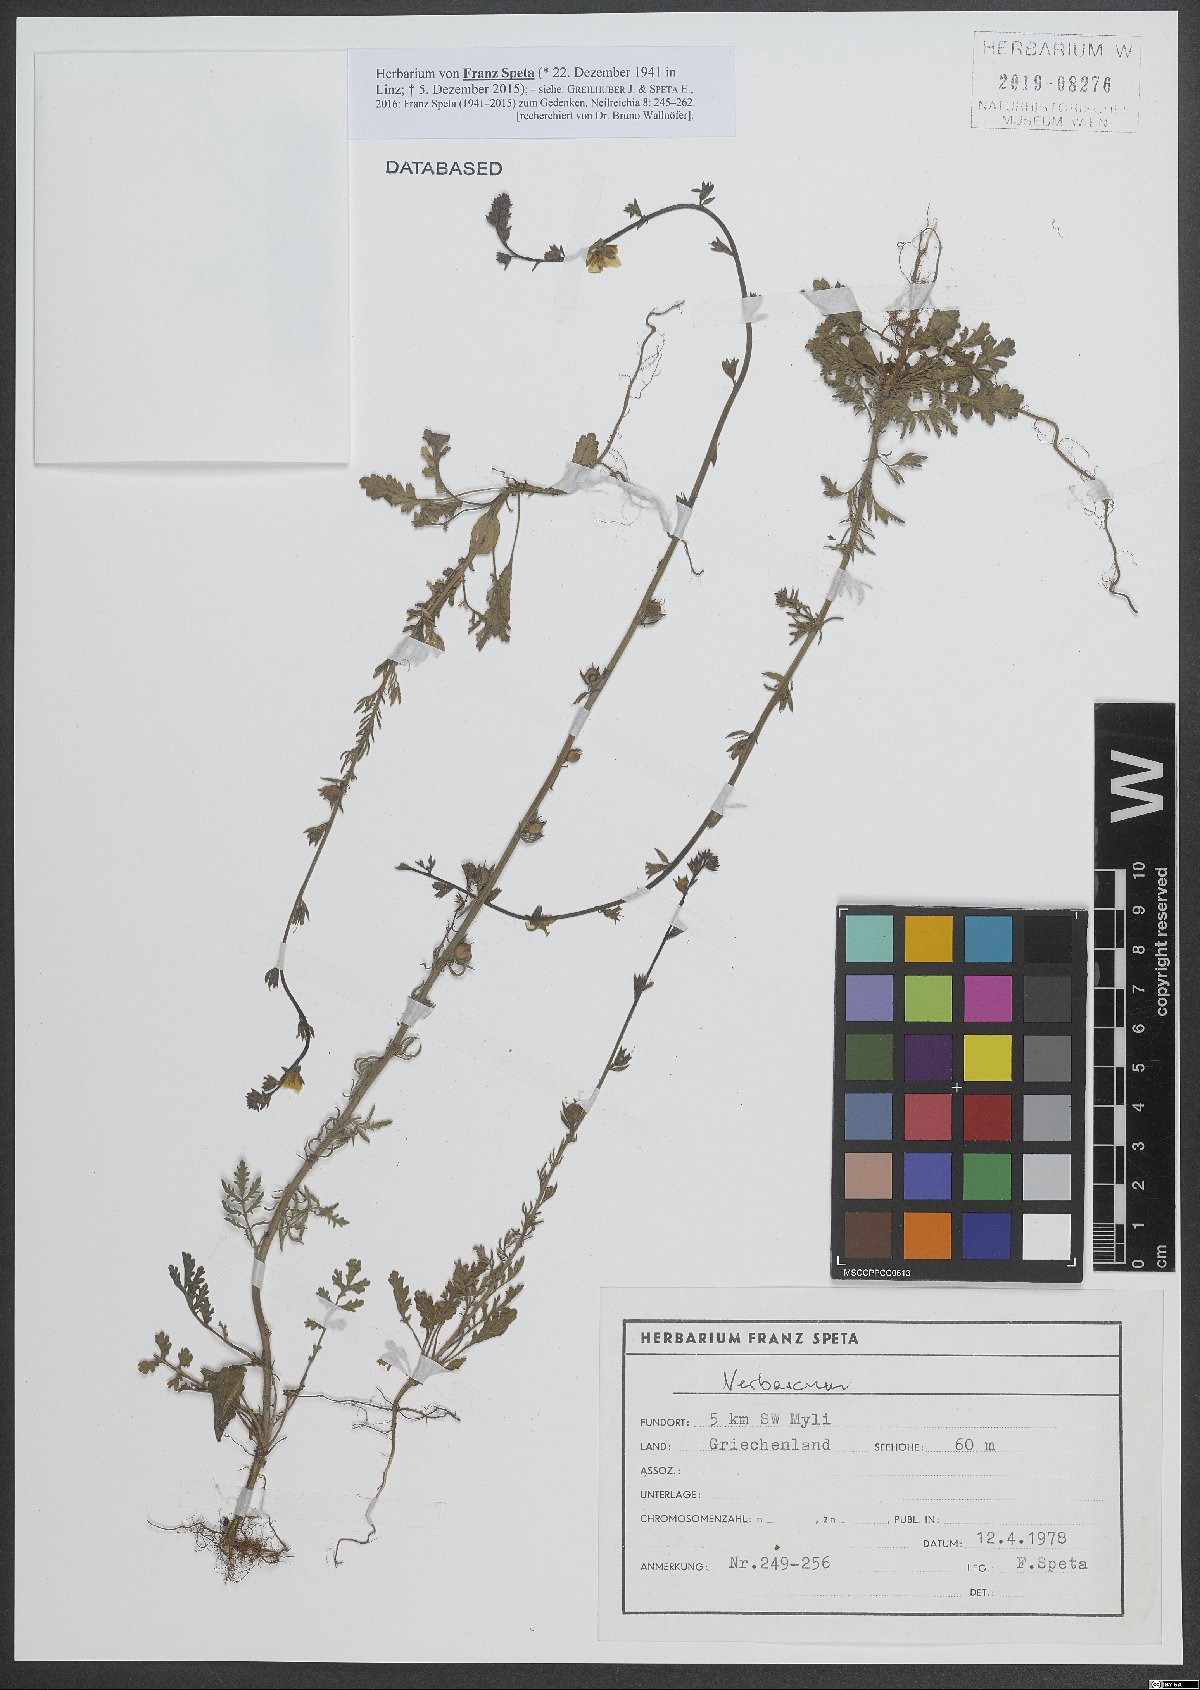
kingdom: Plantae
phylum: Tracheophyta
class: Magnoliopsida
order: Lamiales
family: Scrophulariaceae
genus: Verbascum
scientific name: Verbascum
